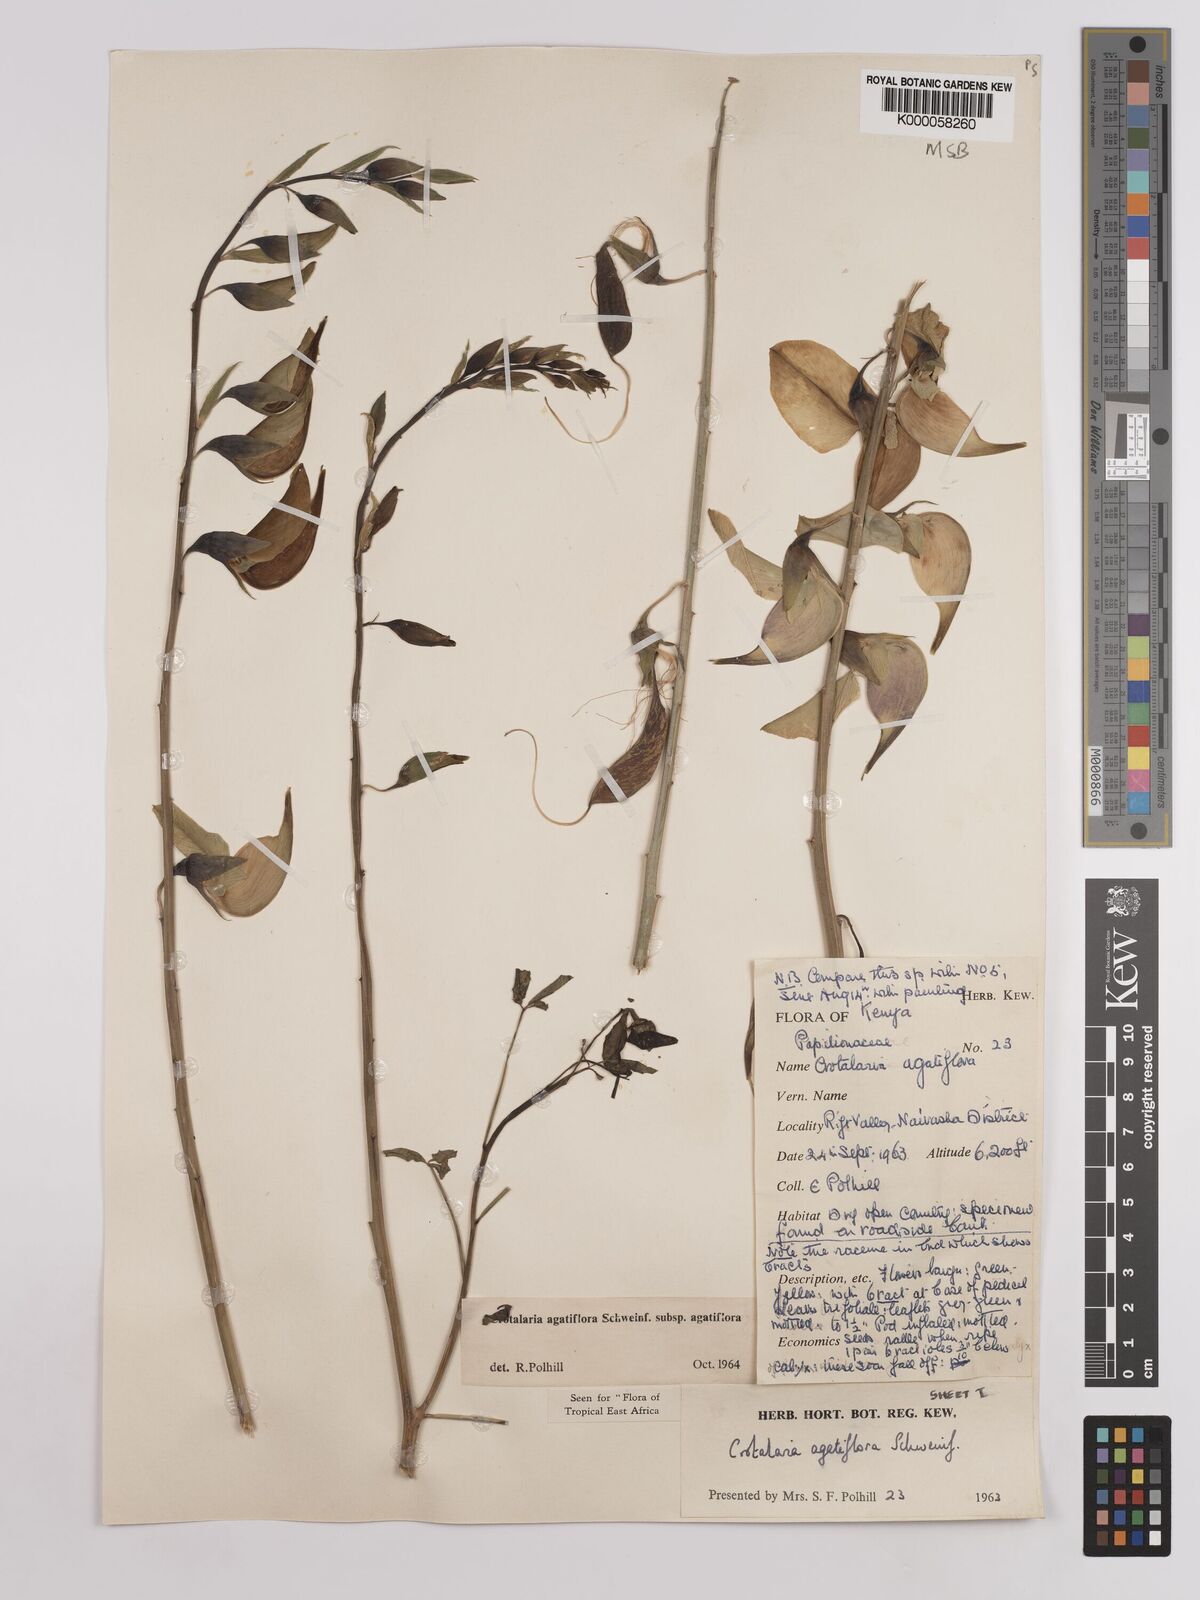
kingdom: Plantae
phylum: Tracheophyta
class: Magnoliopsida
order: Fabales
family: Fabaceae
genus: Crotalaria
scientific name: Crotalaria
